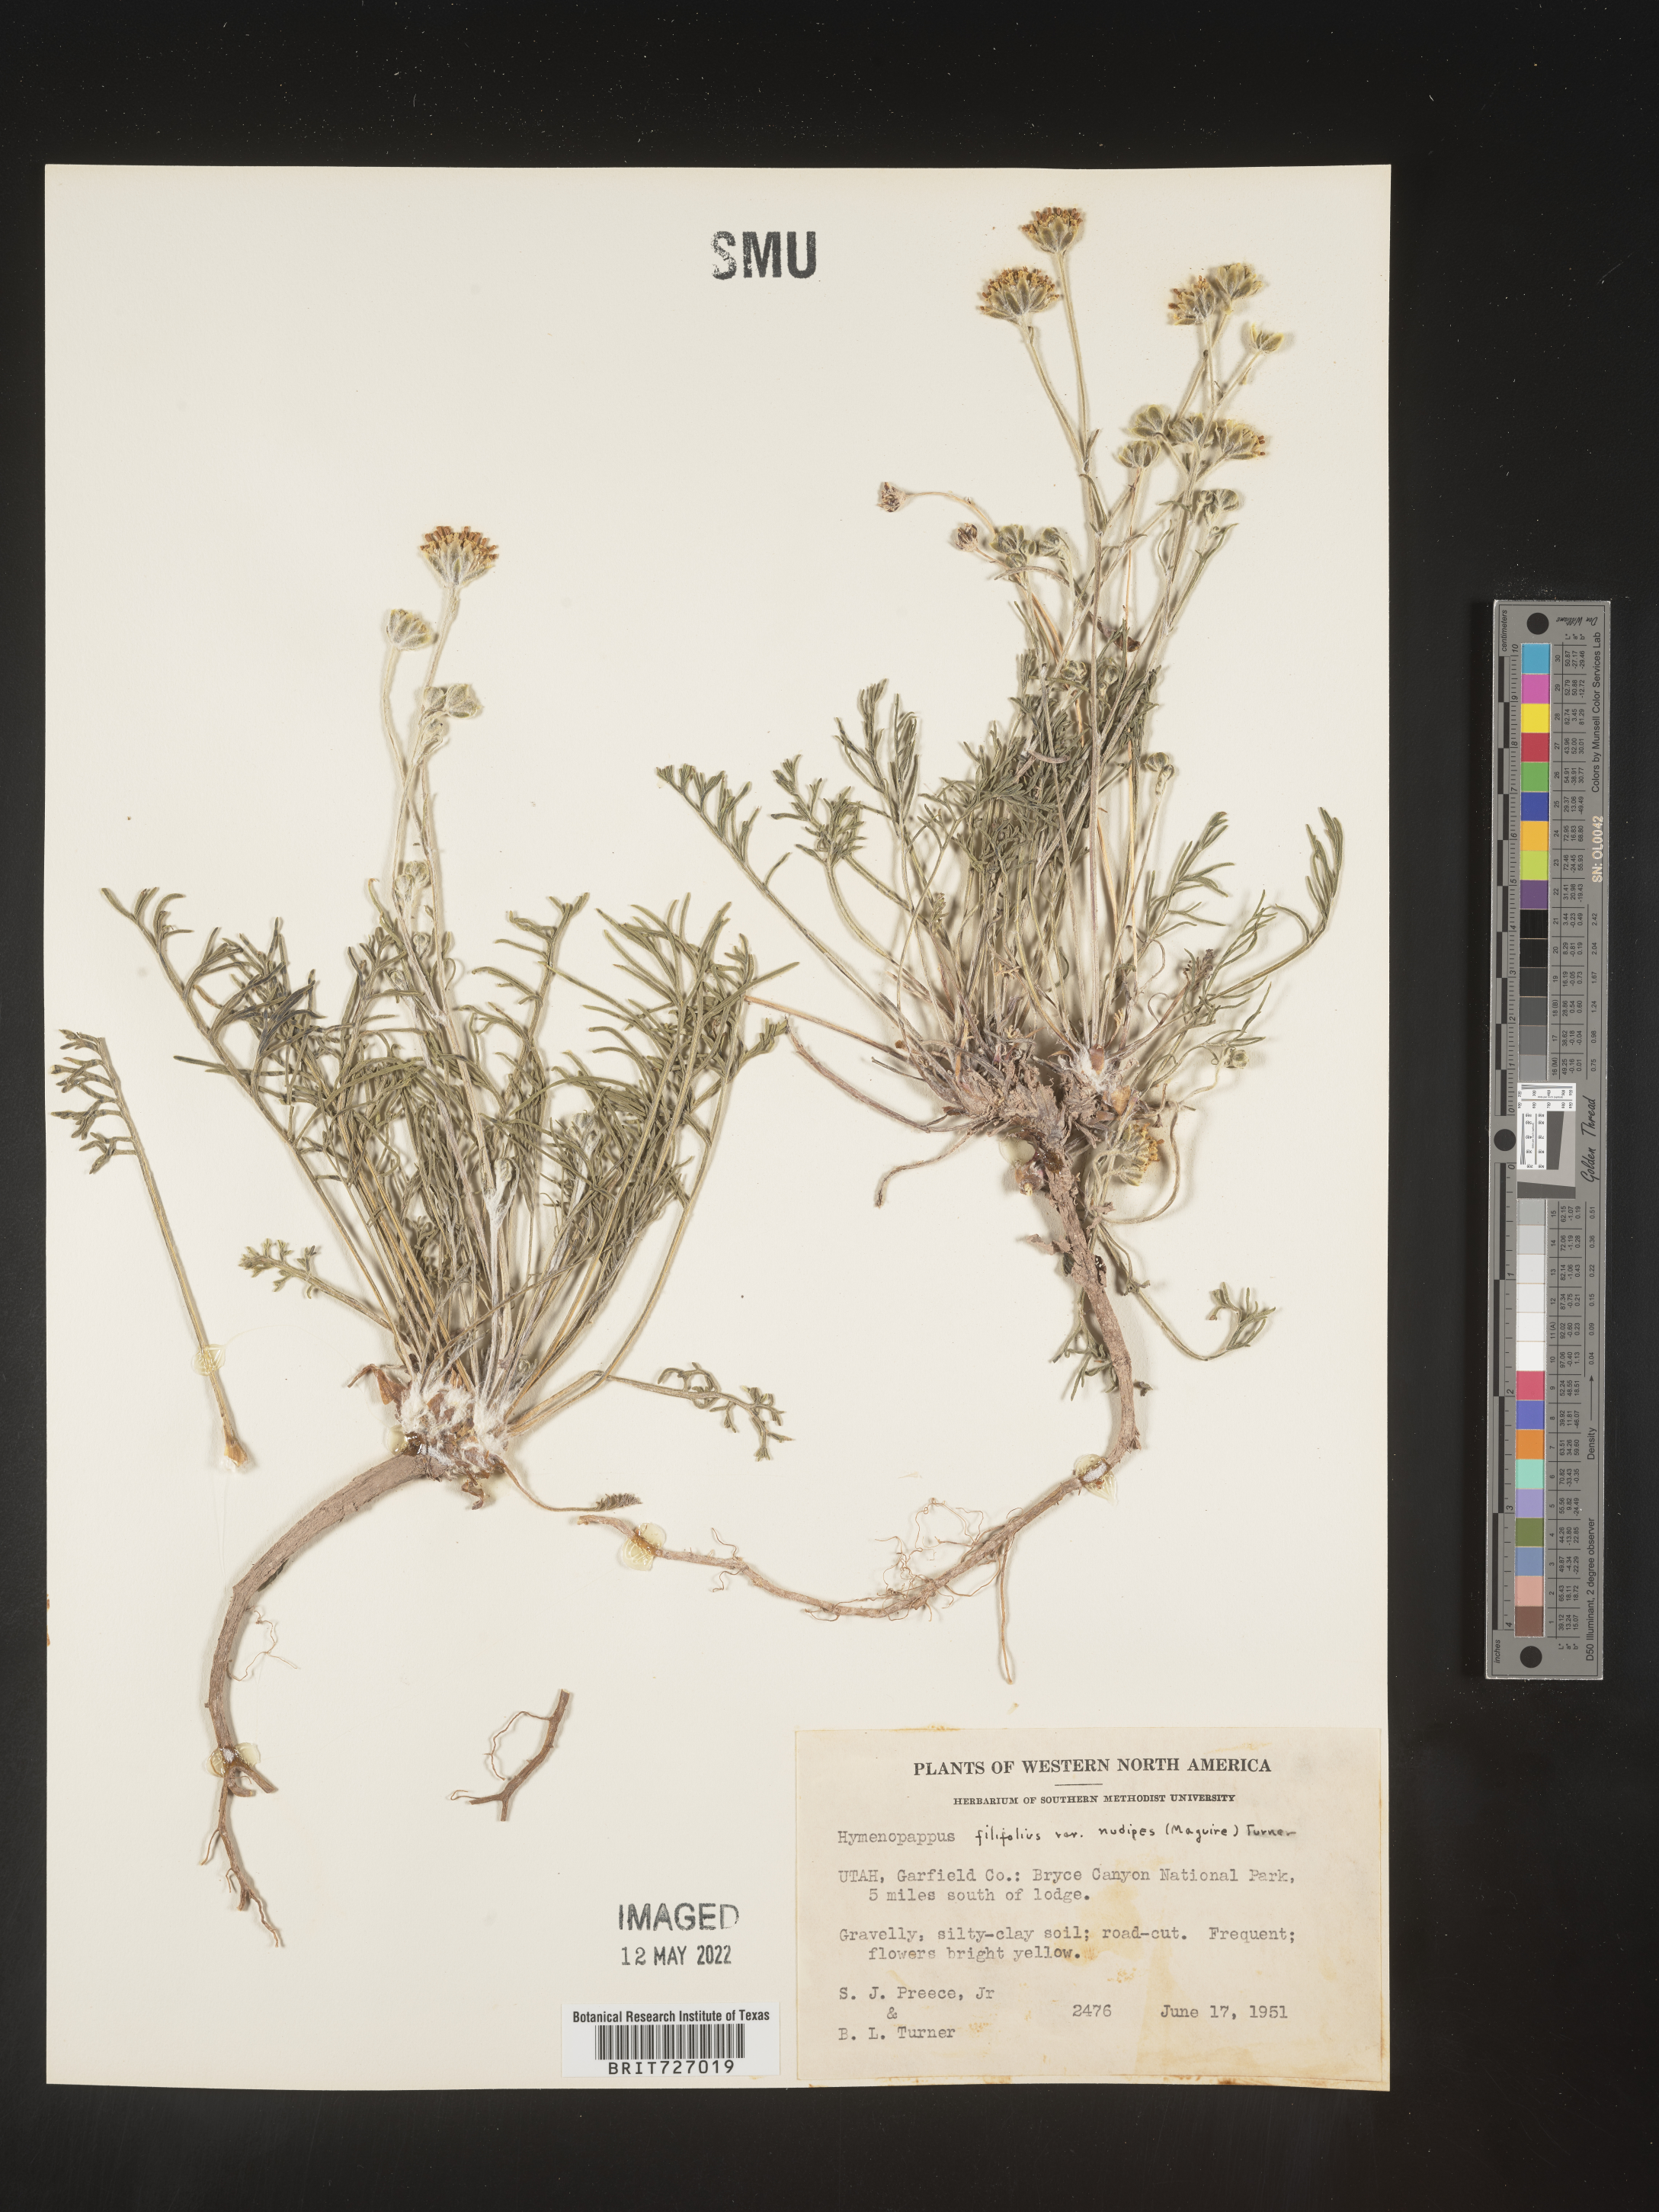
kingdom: Plantae
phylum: Tracheophyta
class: Magnoliopsida
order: Asterales
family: Asteraceae
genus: Hymenopappus
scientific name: Hymenopappus filifolius
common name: Columbia cutleaf
